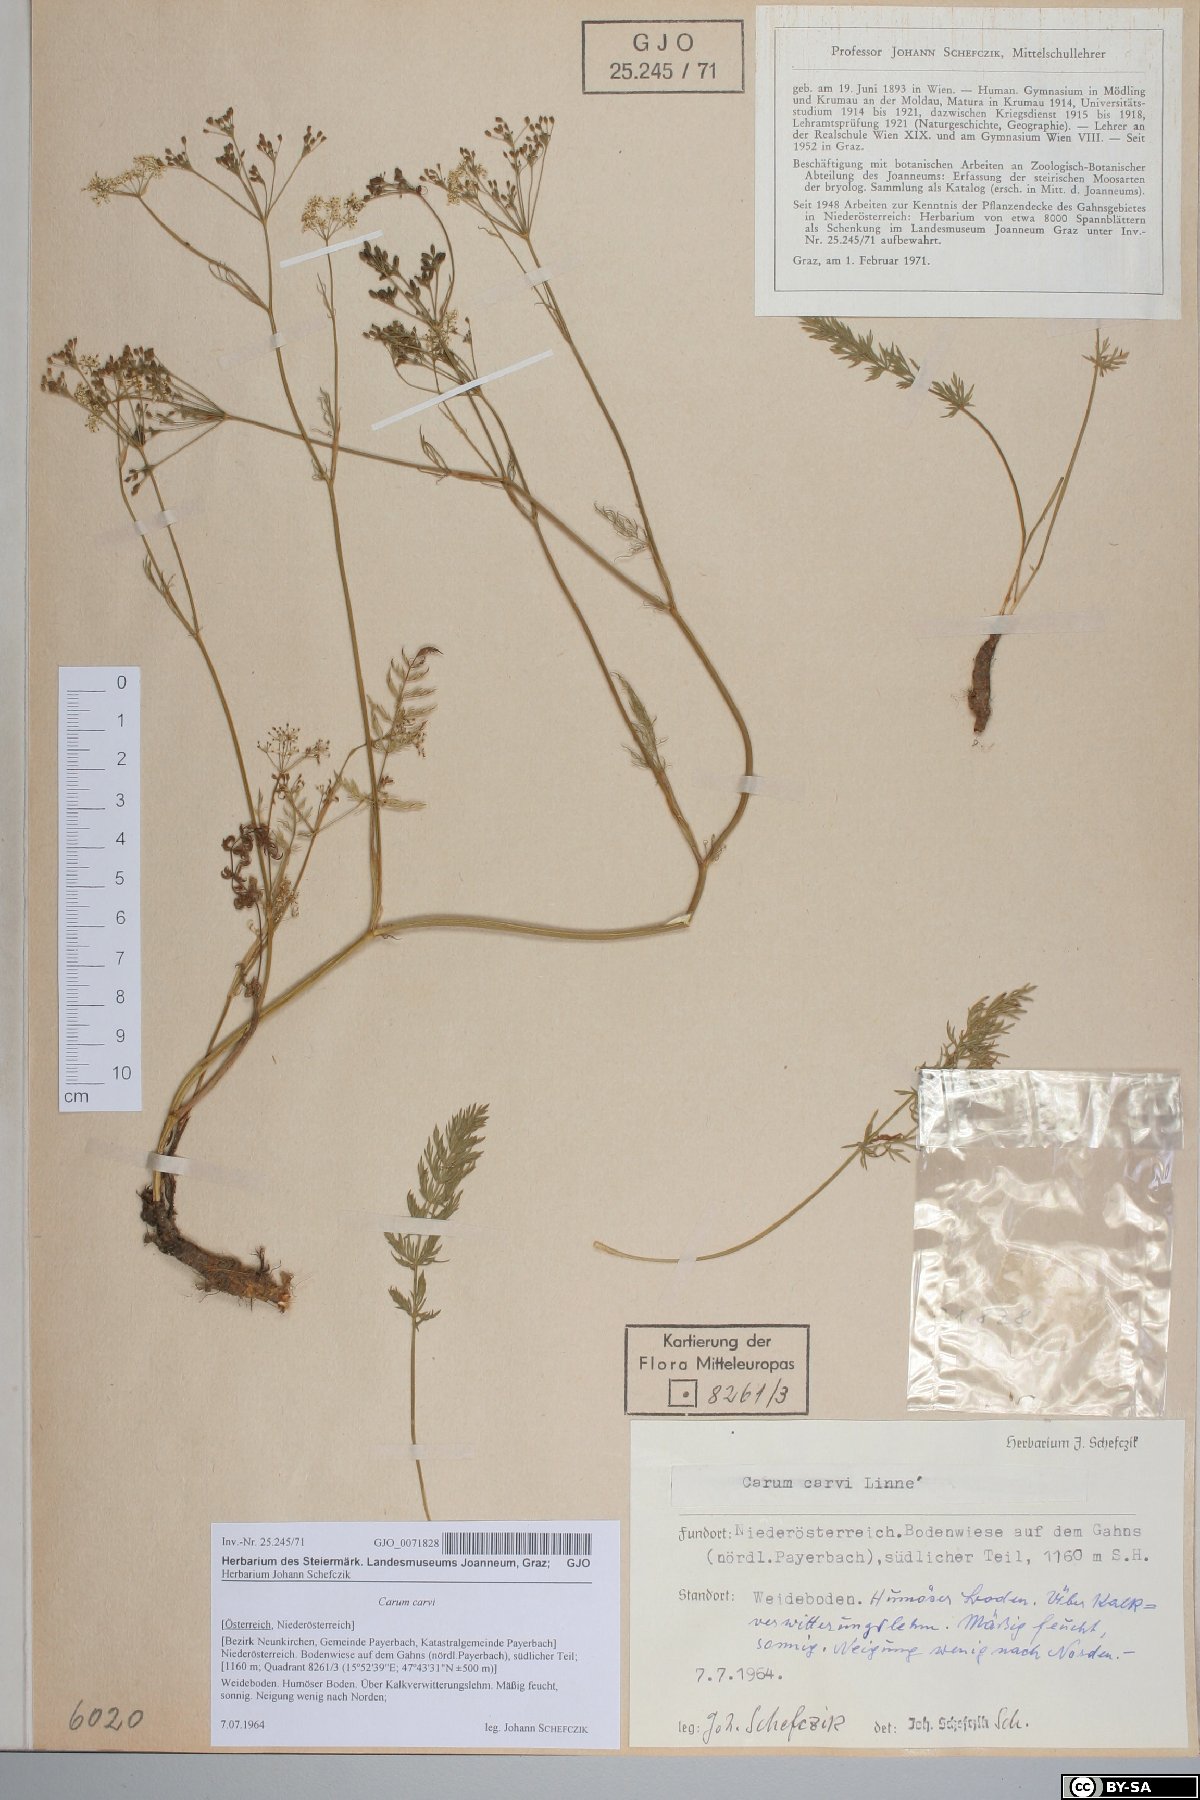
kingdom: Plantae
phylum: Tracheophyta
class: Magnoliopsida
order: Apiales
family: Apiaceae
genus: Carum
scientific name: Carum carvi
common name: Caraway
